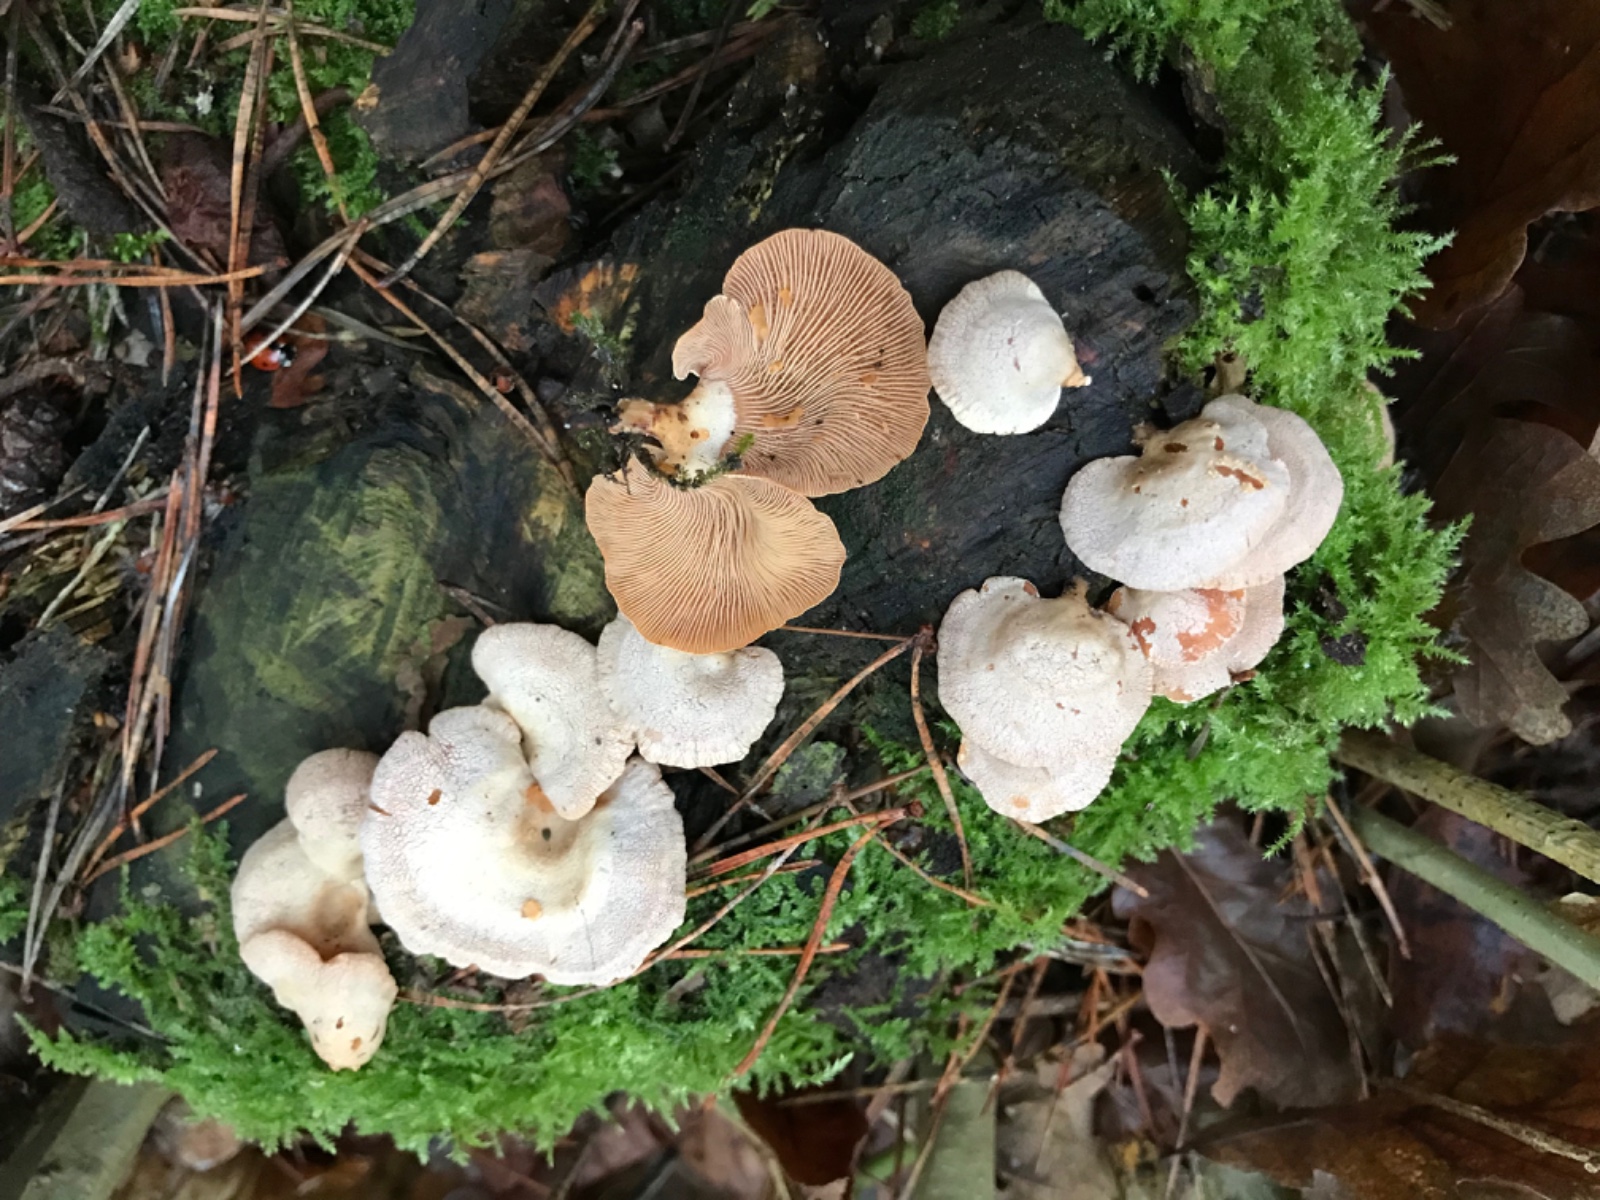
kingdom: Fungi
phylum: Basidiomycota
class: Agaricomycetes
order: Agaricales
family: Mycenaceae
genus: Panellus
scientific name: Panellus stipticus
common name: kliddet epaulethat
